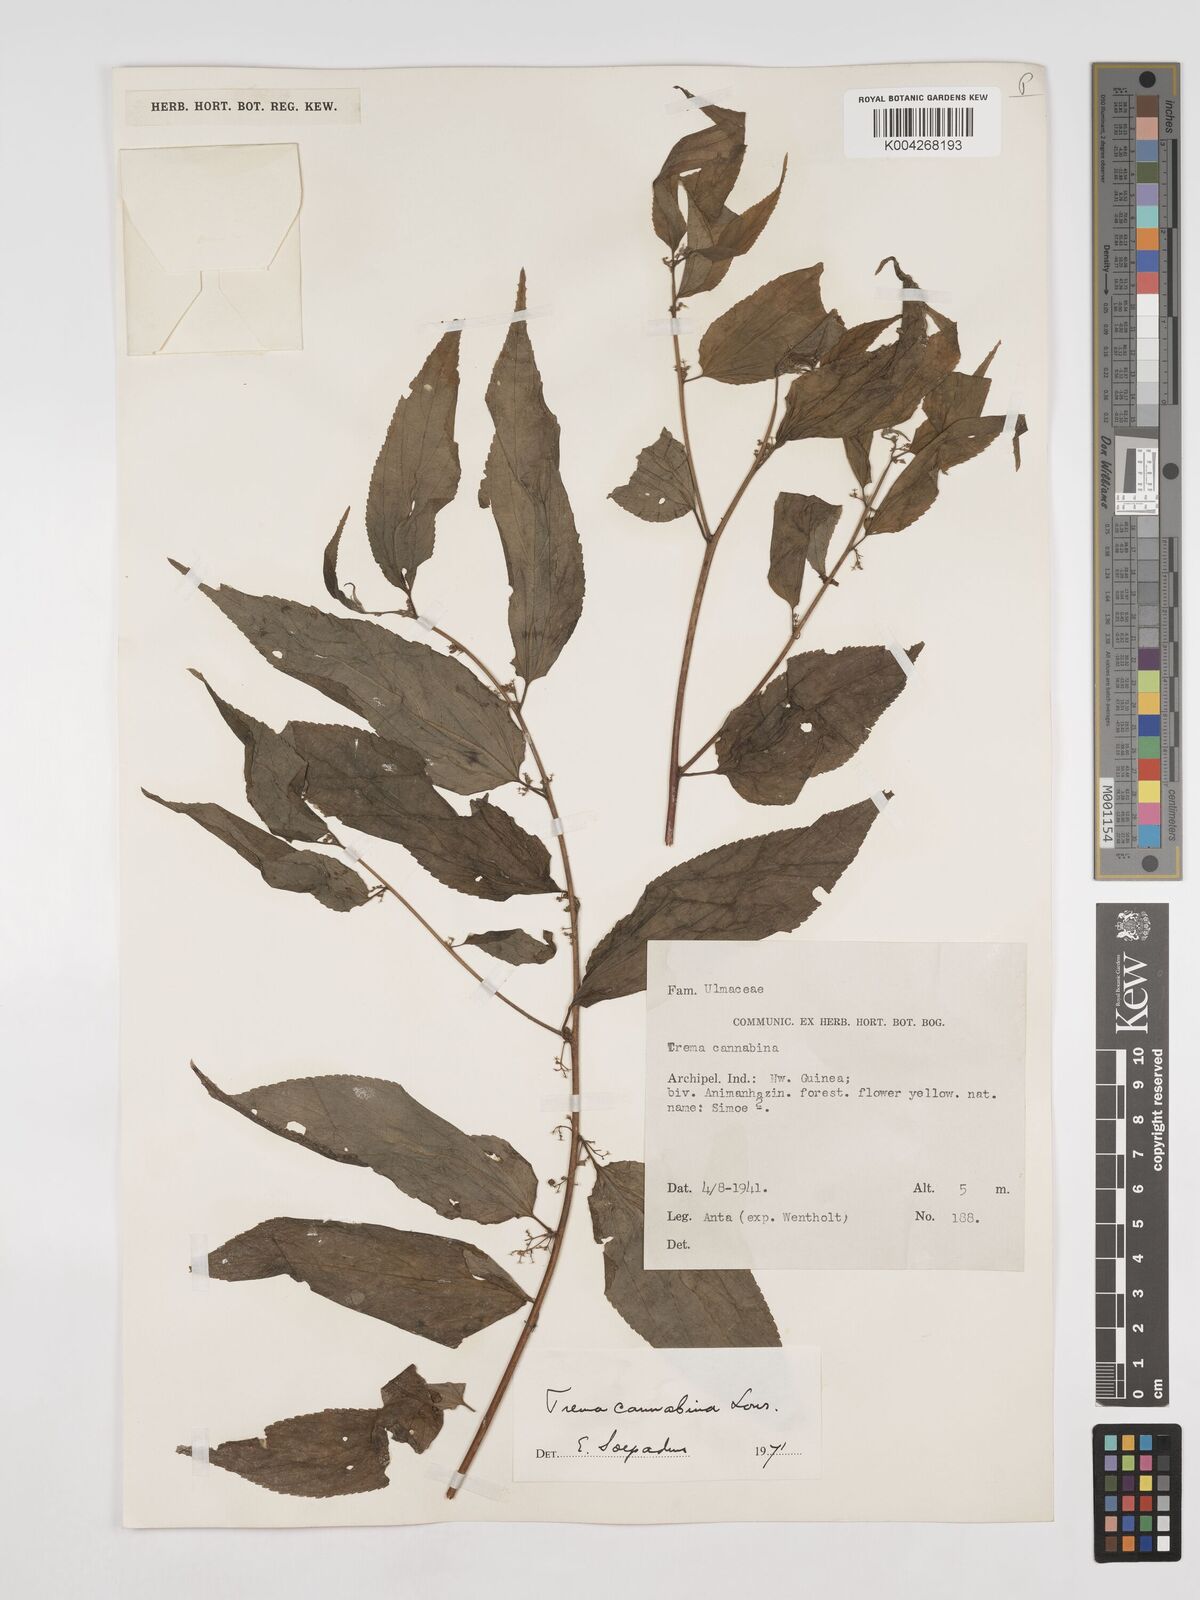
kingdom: Plantae
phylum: Tracheophyta
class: Magnoliopsida
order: Rosales
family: Cannabaceae
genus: Trema
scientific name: Trema
